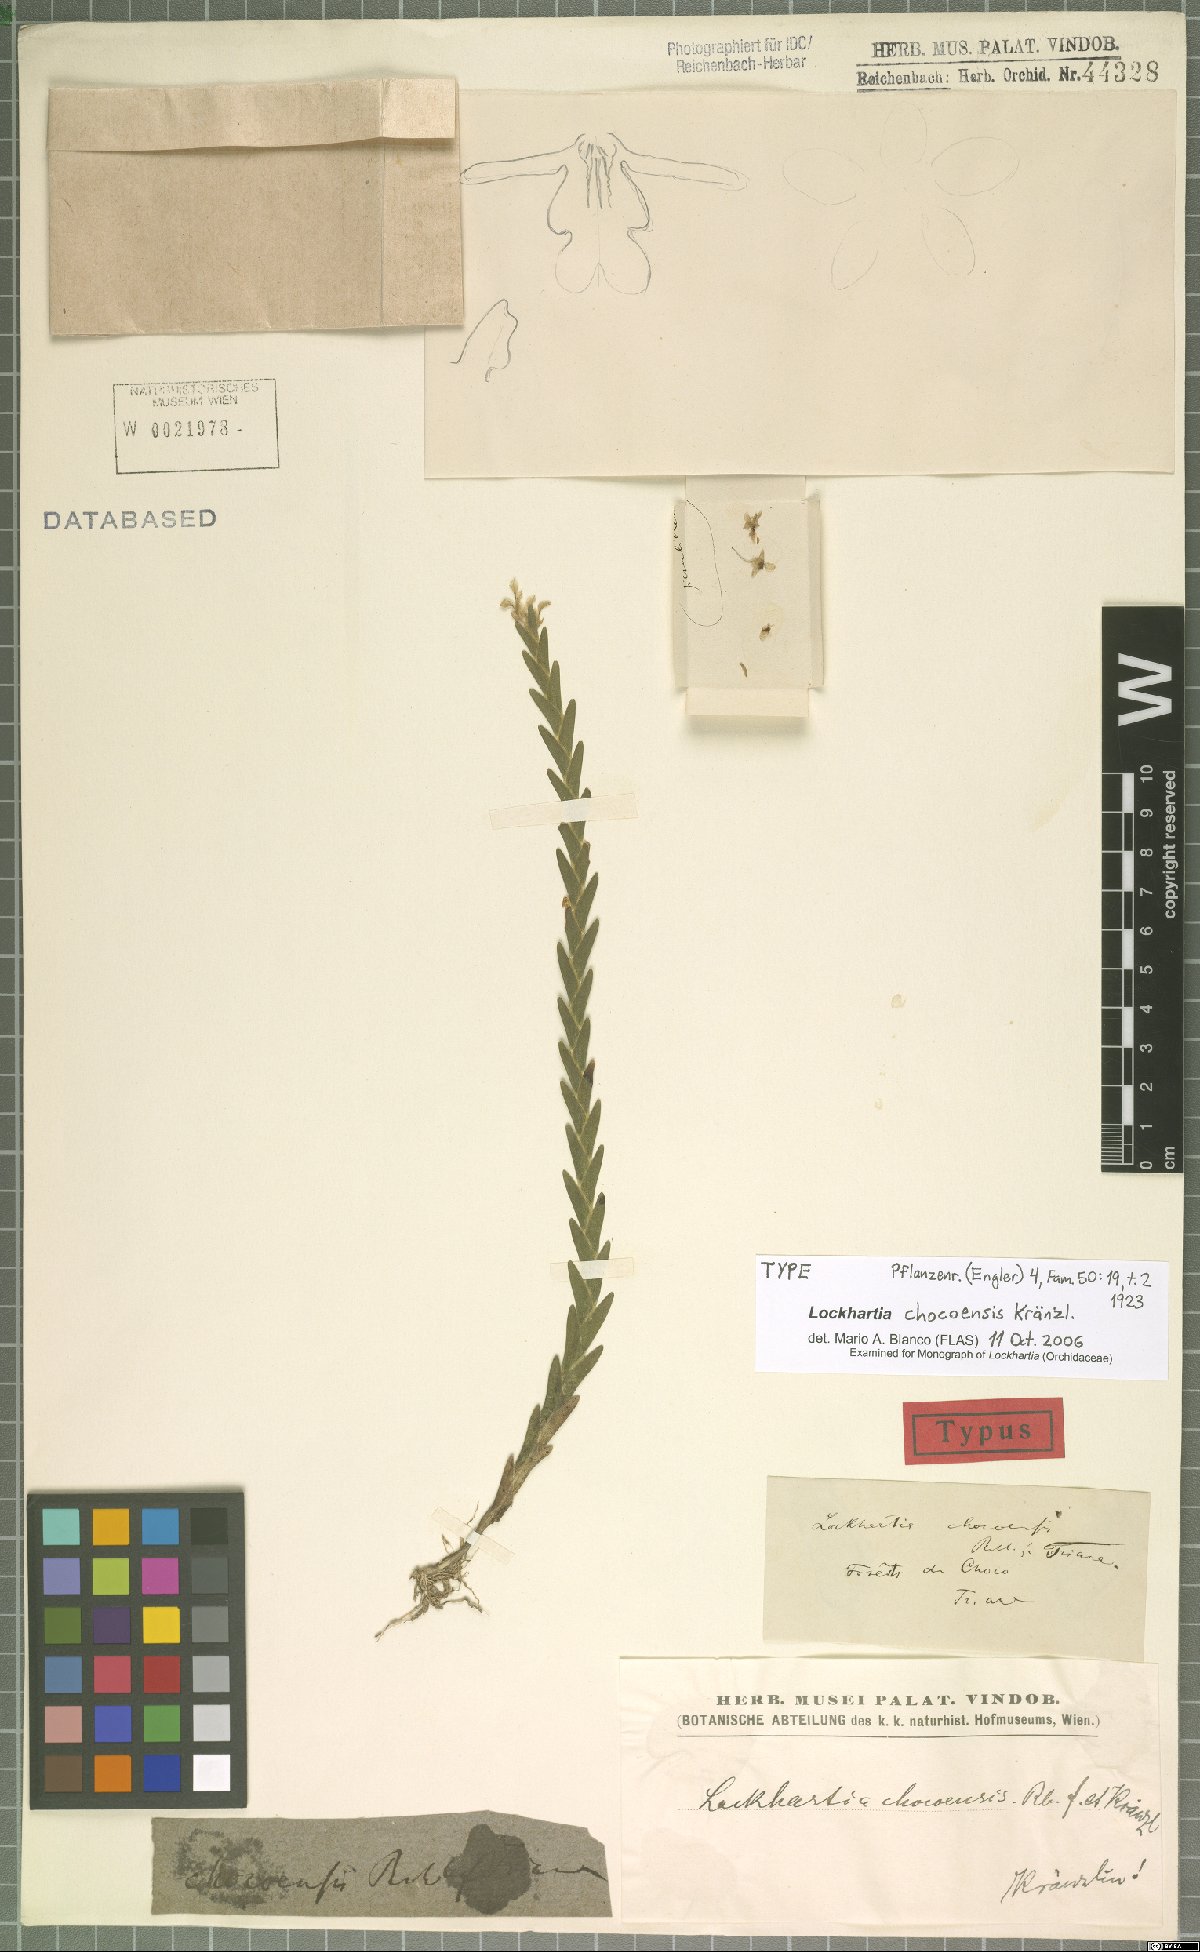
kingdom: Plantae
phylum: Tracheophyta
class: Liliopsida
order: Asparagales
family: Orchidaceae
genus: Lockhartia
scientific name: Lockhartia chocoensis
